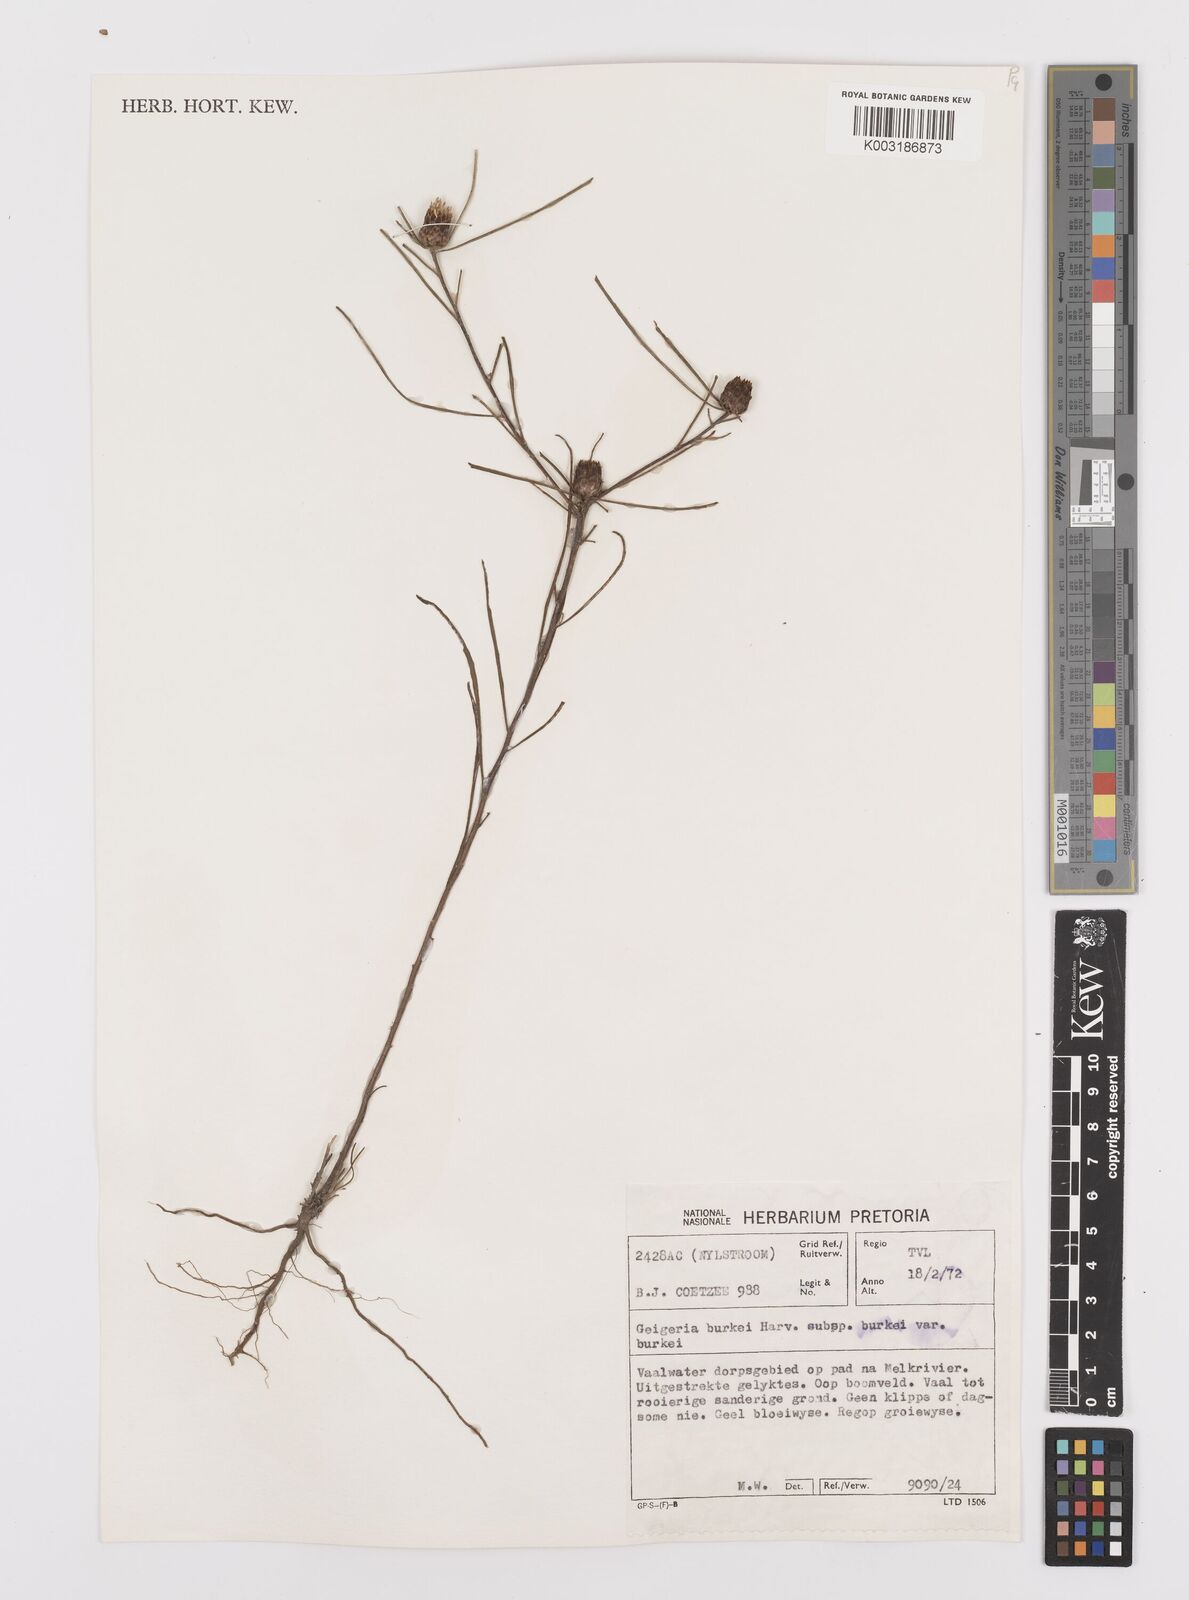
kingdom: Plantae
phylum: Tracheophyta
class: Magnoliopsida
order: Asterales
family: Asteraceae
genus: Geigeria
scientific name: Geigeria burkei
